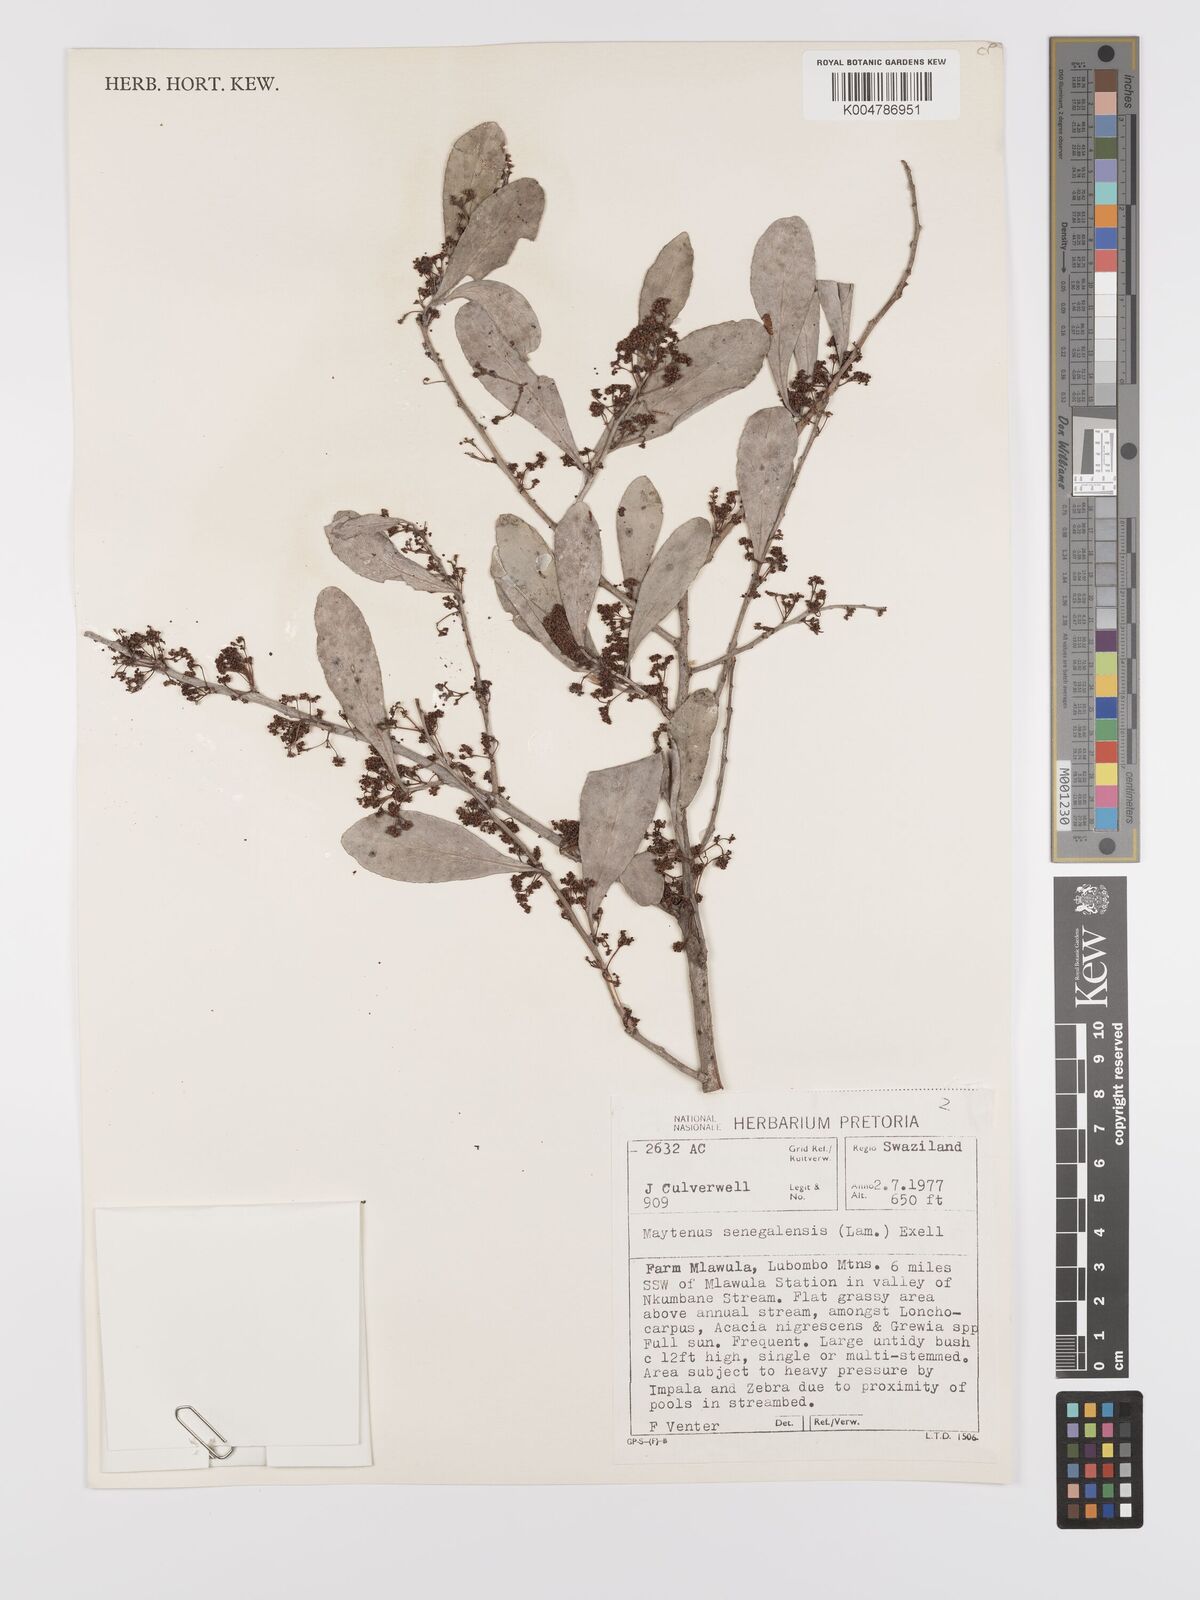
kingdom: Plantae
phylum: Tracheophyta
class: Magnoliopsida
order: Celastrales
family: Celastraceae
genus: Gymnosporia
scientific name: Gymnosporia senegalensis
